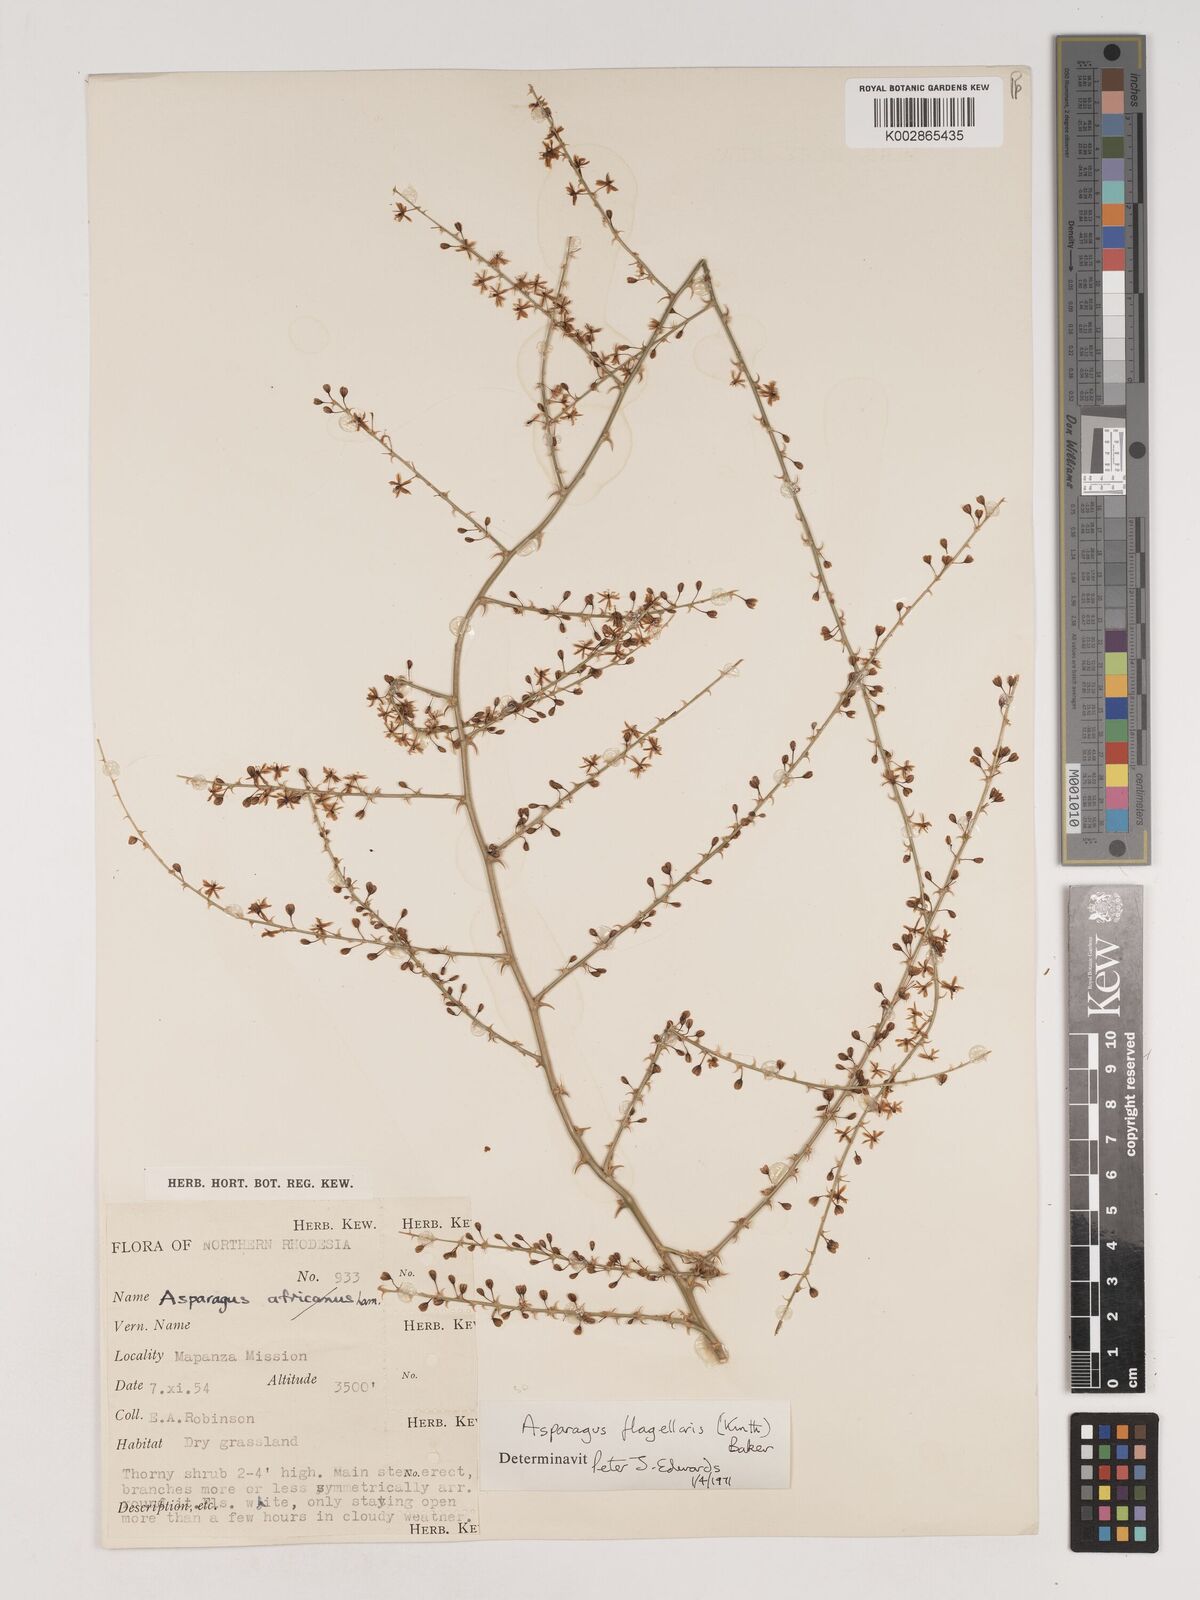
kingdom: Plantae
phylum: Tracheophyta
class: Liliopsida
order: Asparagales
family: Asparagaceae
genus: Asparagus
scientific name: Asparagus flagellaris
